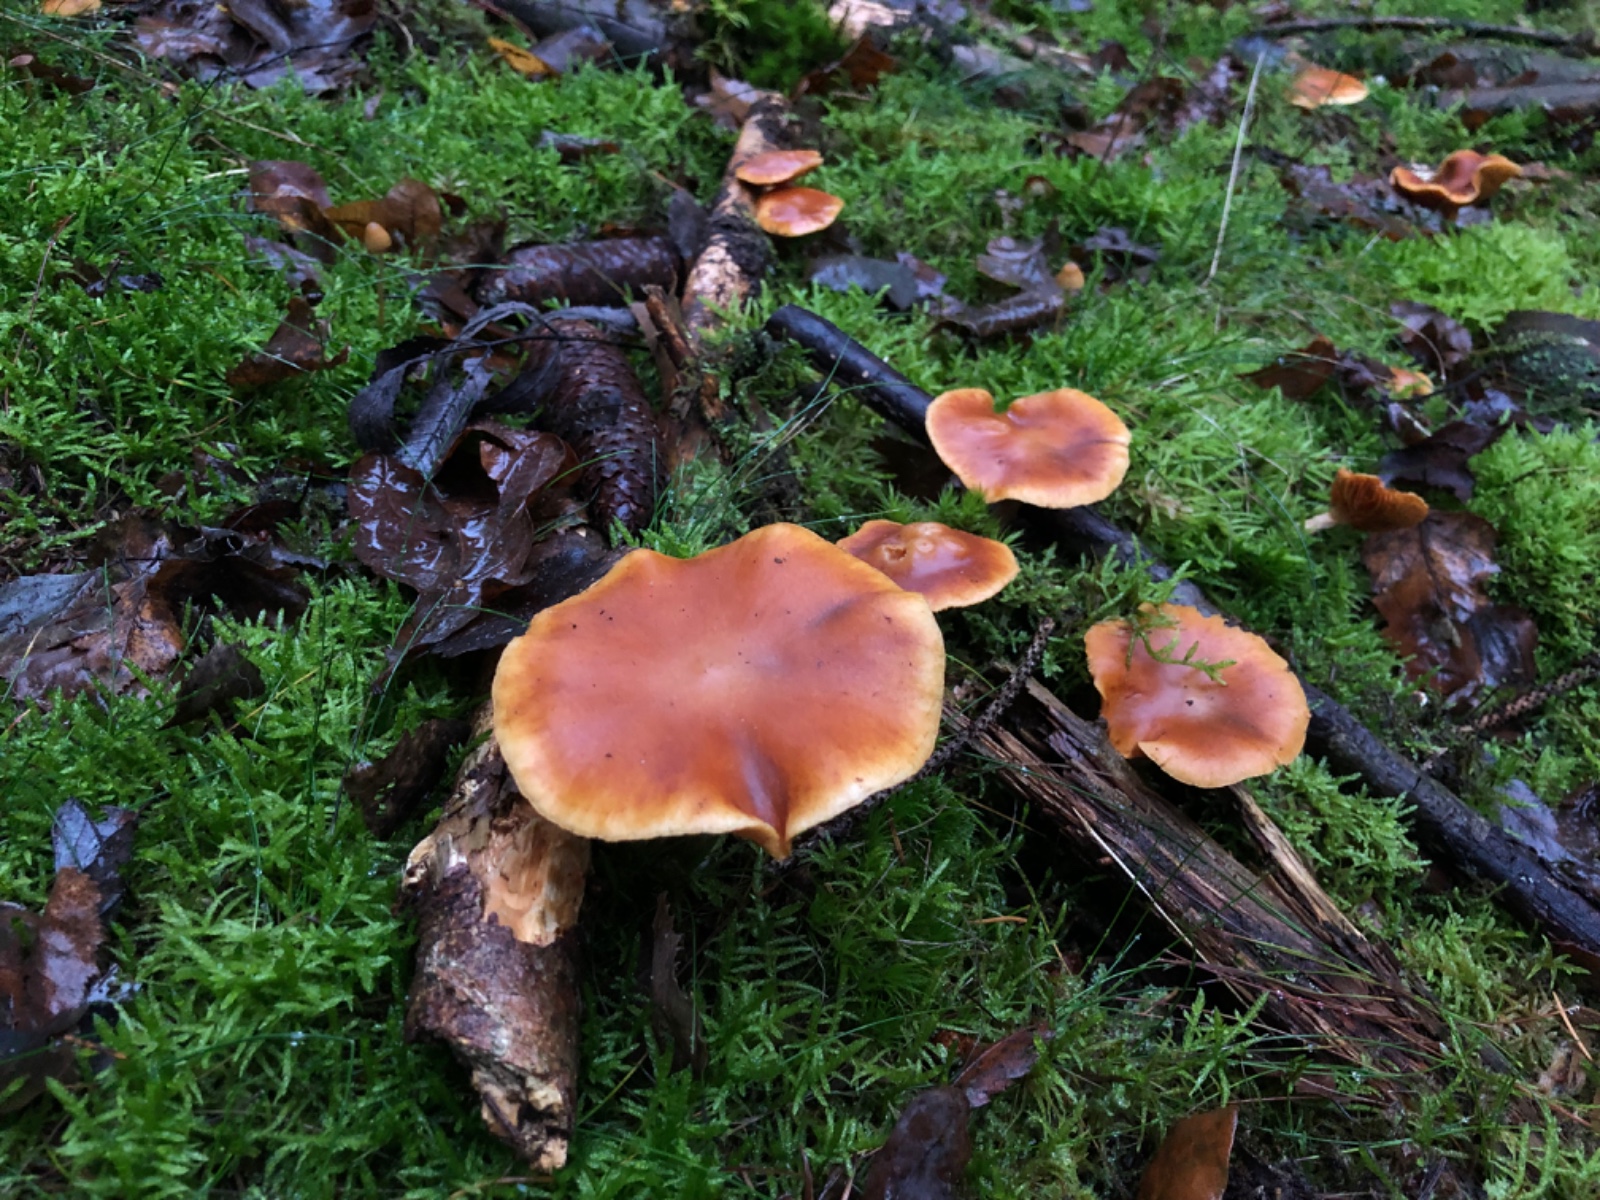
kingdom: Fungi
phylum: Basidiomycota
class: Agaricomycetes
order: Agaricales
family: Hymenogastraceae
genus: Gymnopilus
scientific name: Gymnopilus penetrans
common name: plettet flammehat
